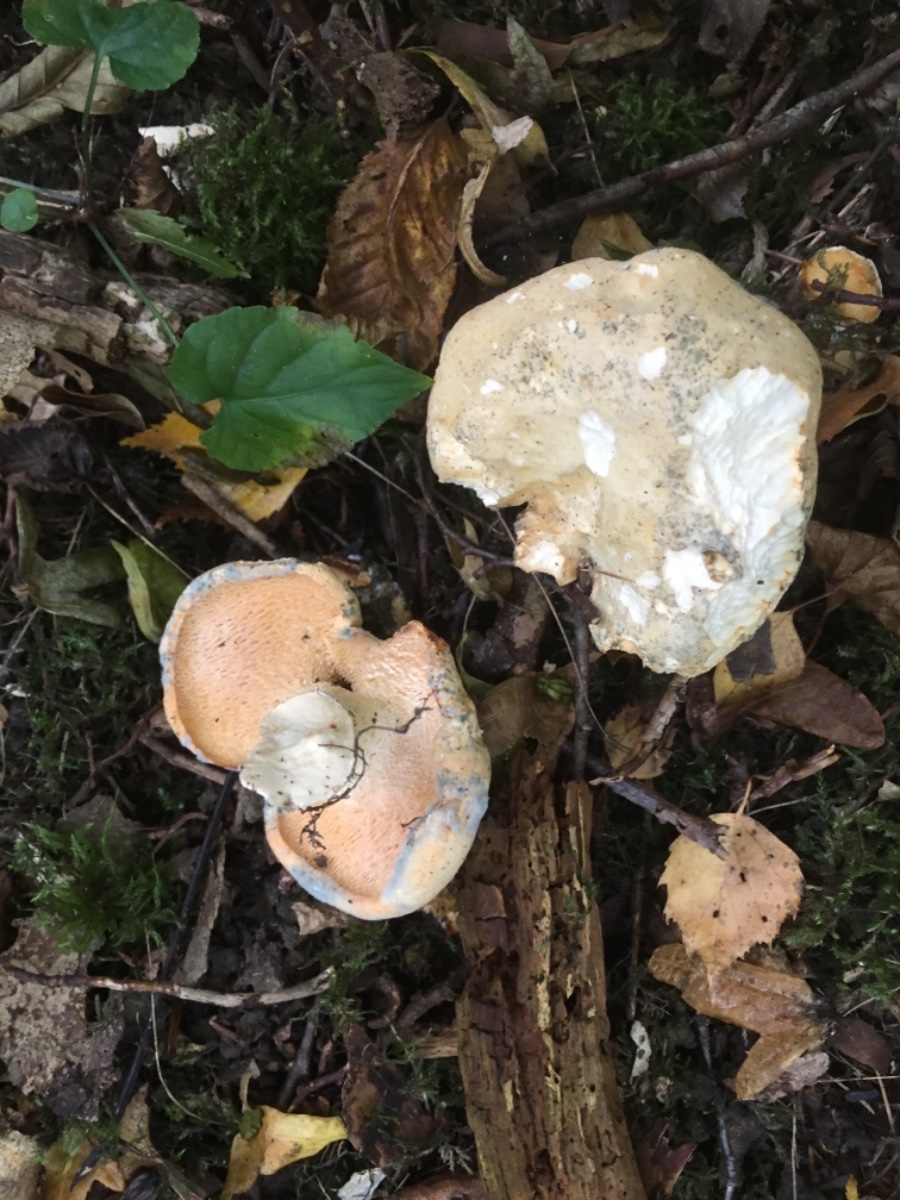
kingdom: Fungi
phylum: Basidiomycota
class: Agaricomycetes
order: Cantharellales
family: Hydnaceae
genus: Hydnum
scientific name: Hydnum
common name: pigsvamp
